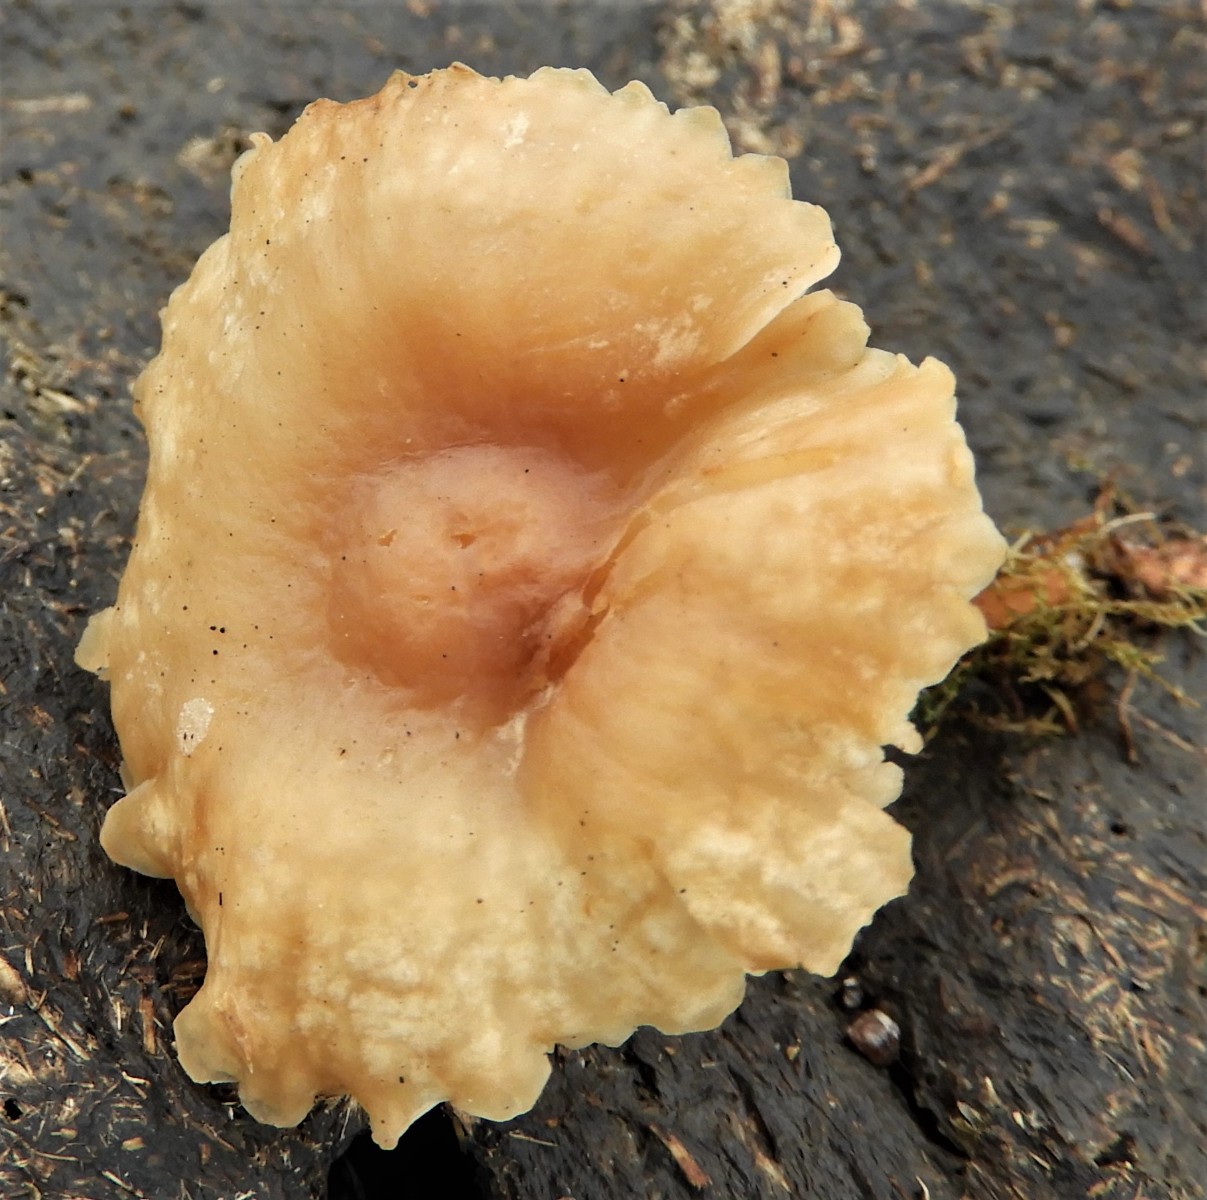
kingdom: Fungi
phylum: Basidiomycota
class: Agaricomycetes
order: Agaricales
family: Hygrophoraceae
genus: Cuphophyllus
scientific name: Cuphophyllus pratensis
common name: eng-vokshat
